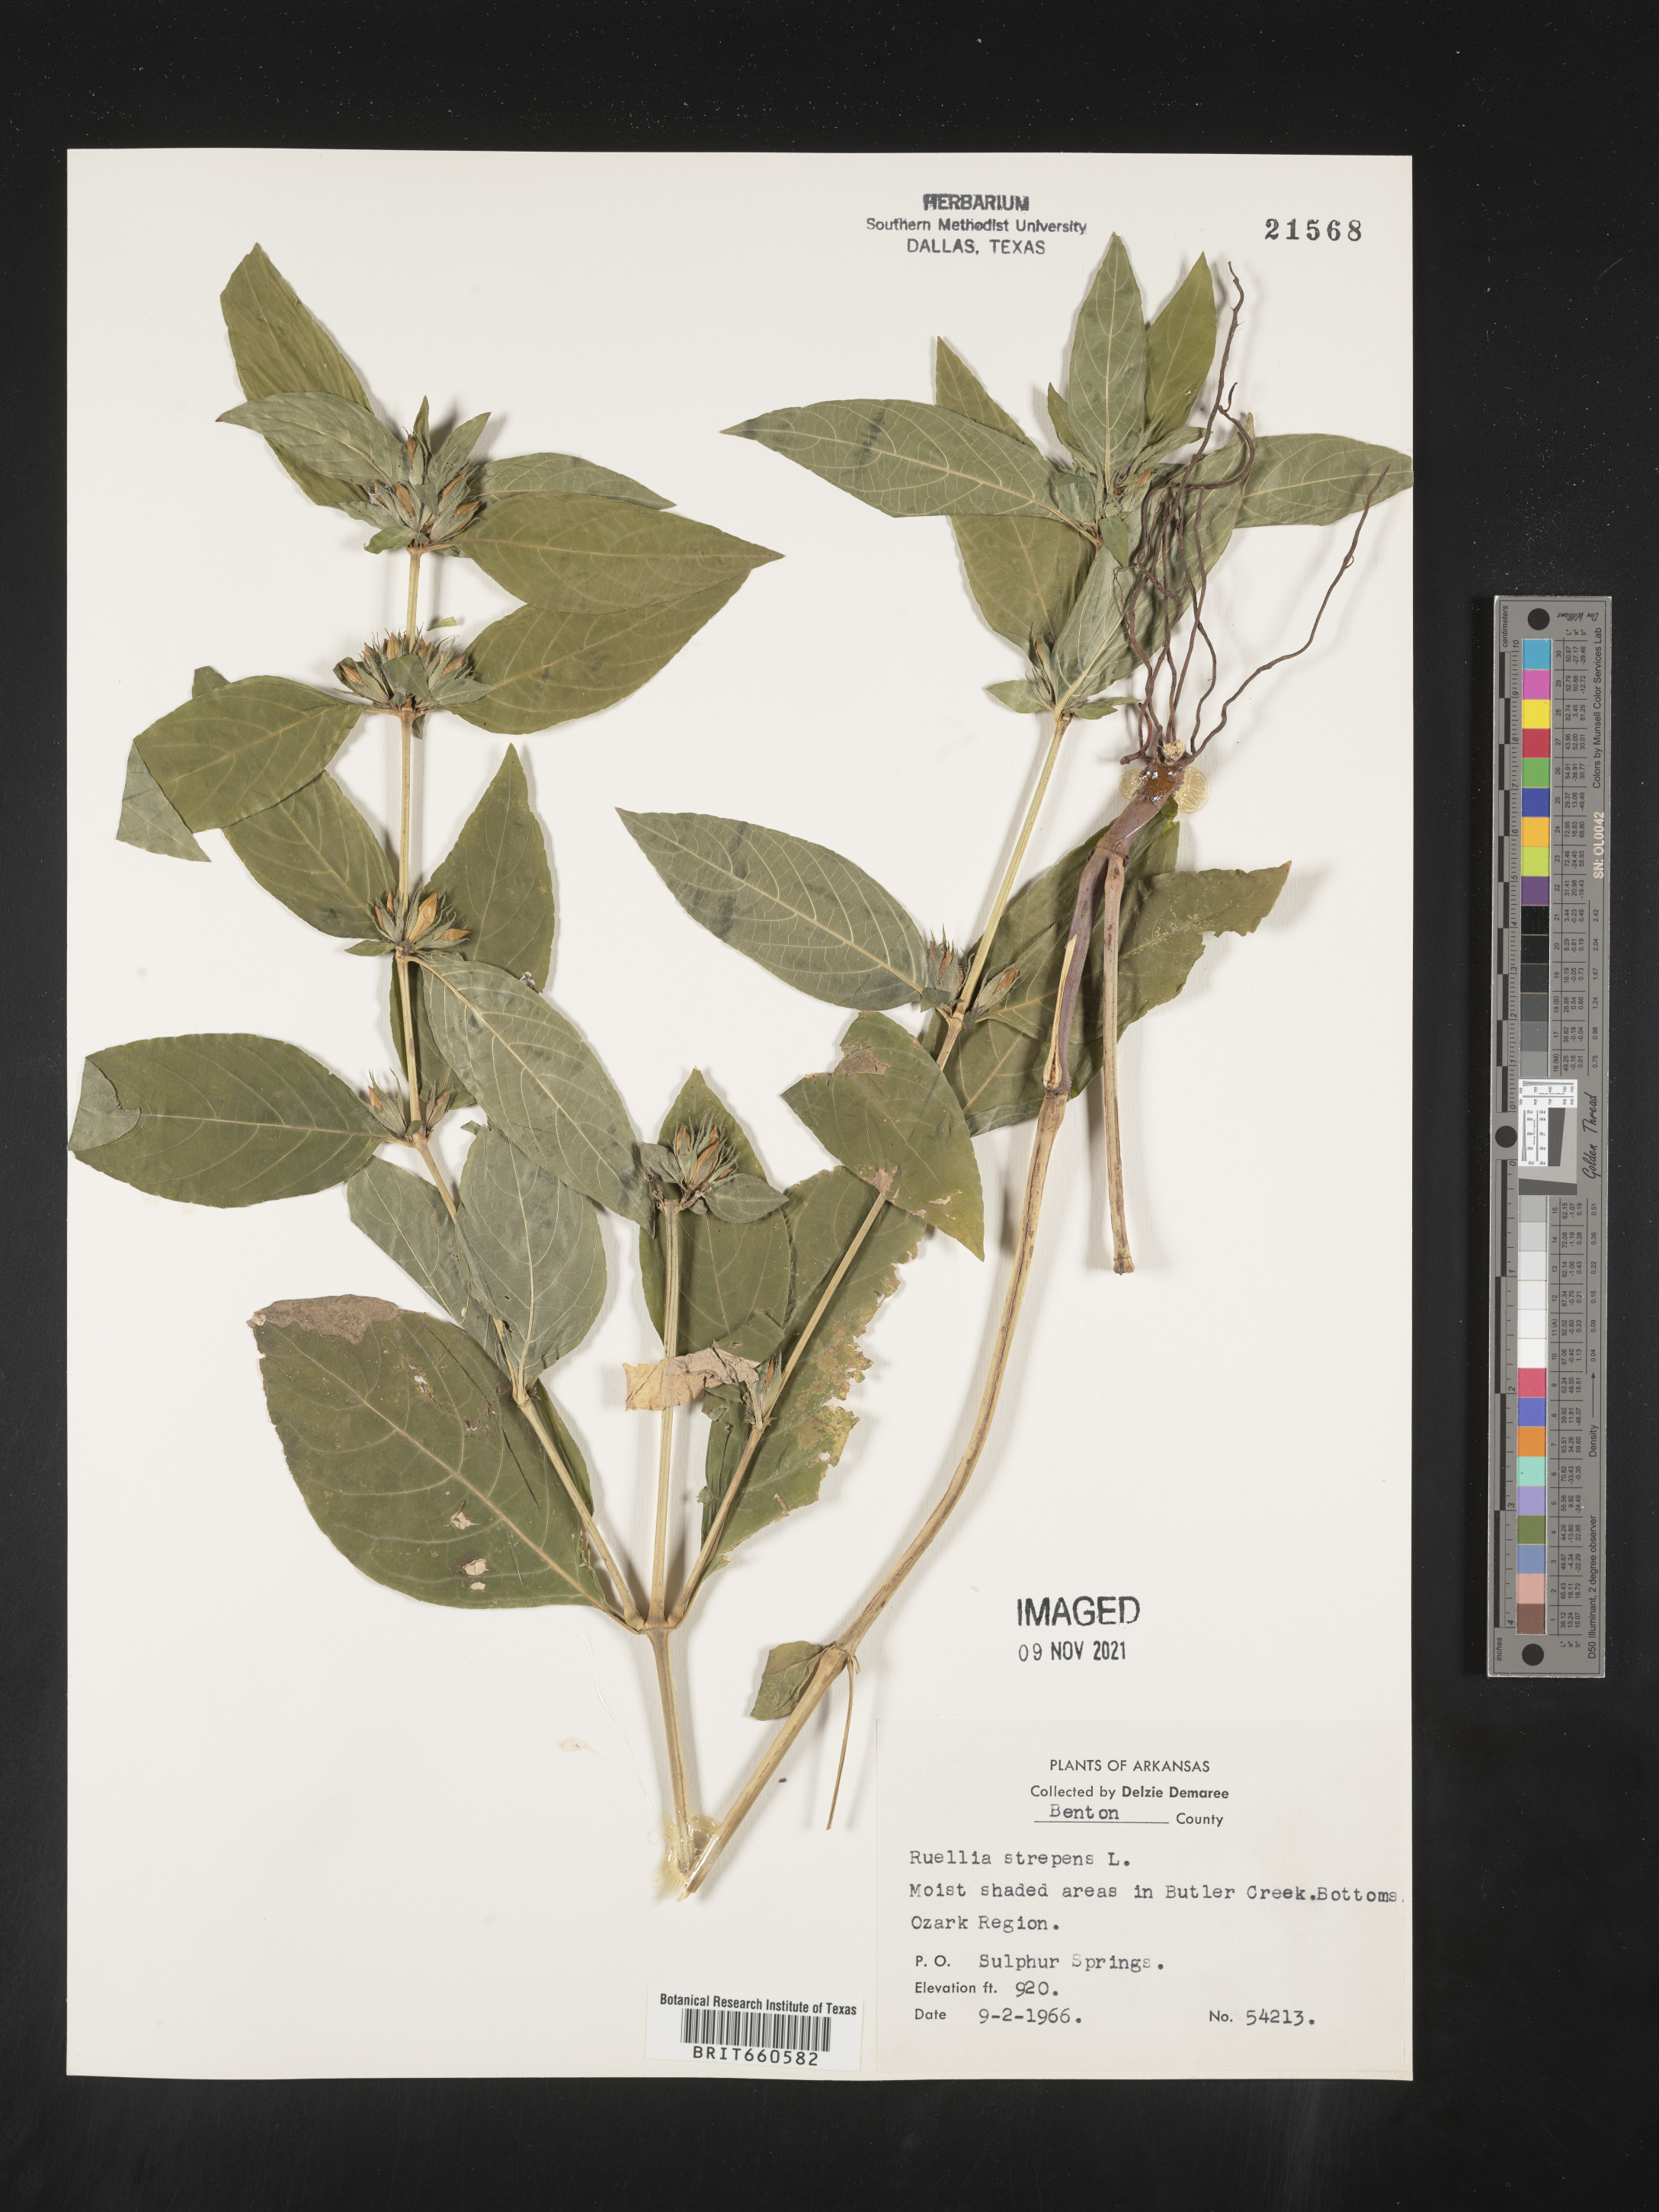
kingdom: Plantae
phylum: Tracheophyta
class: Magnoliopsida
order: Lamiales
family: Acanthaceae
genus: Ruellia
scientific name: Ruellia strepens
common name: Limestone wild petunia
